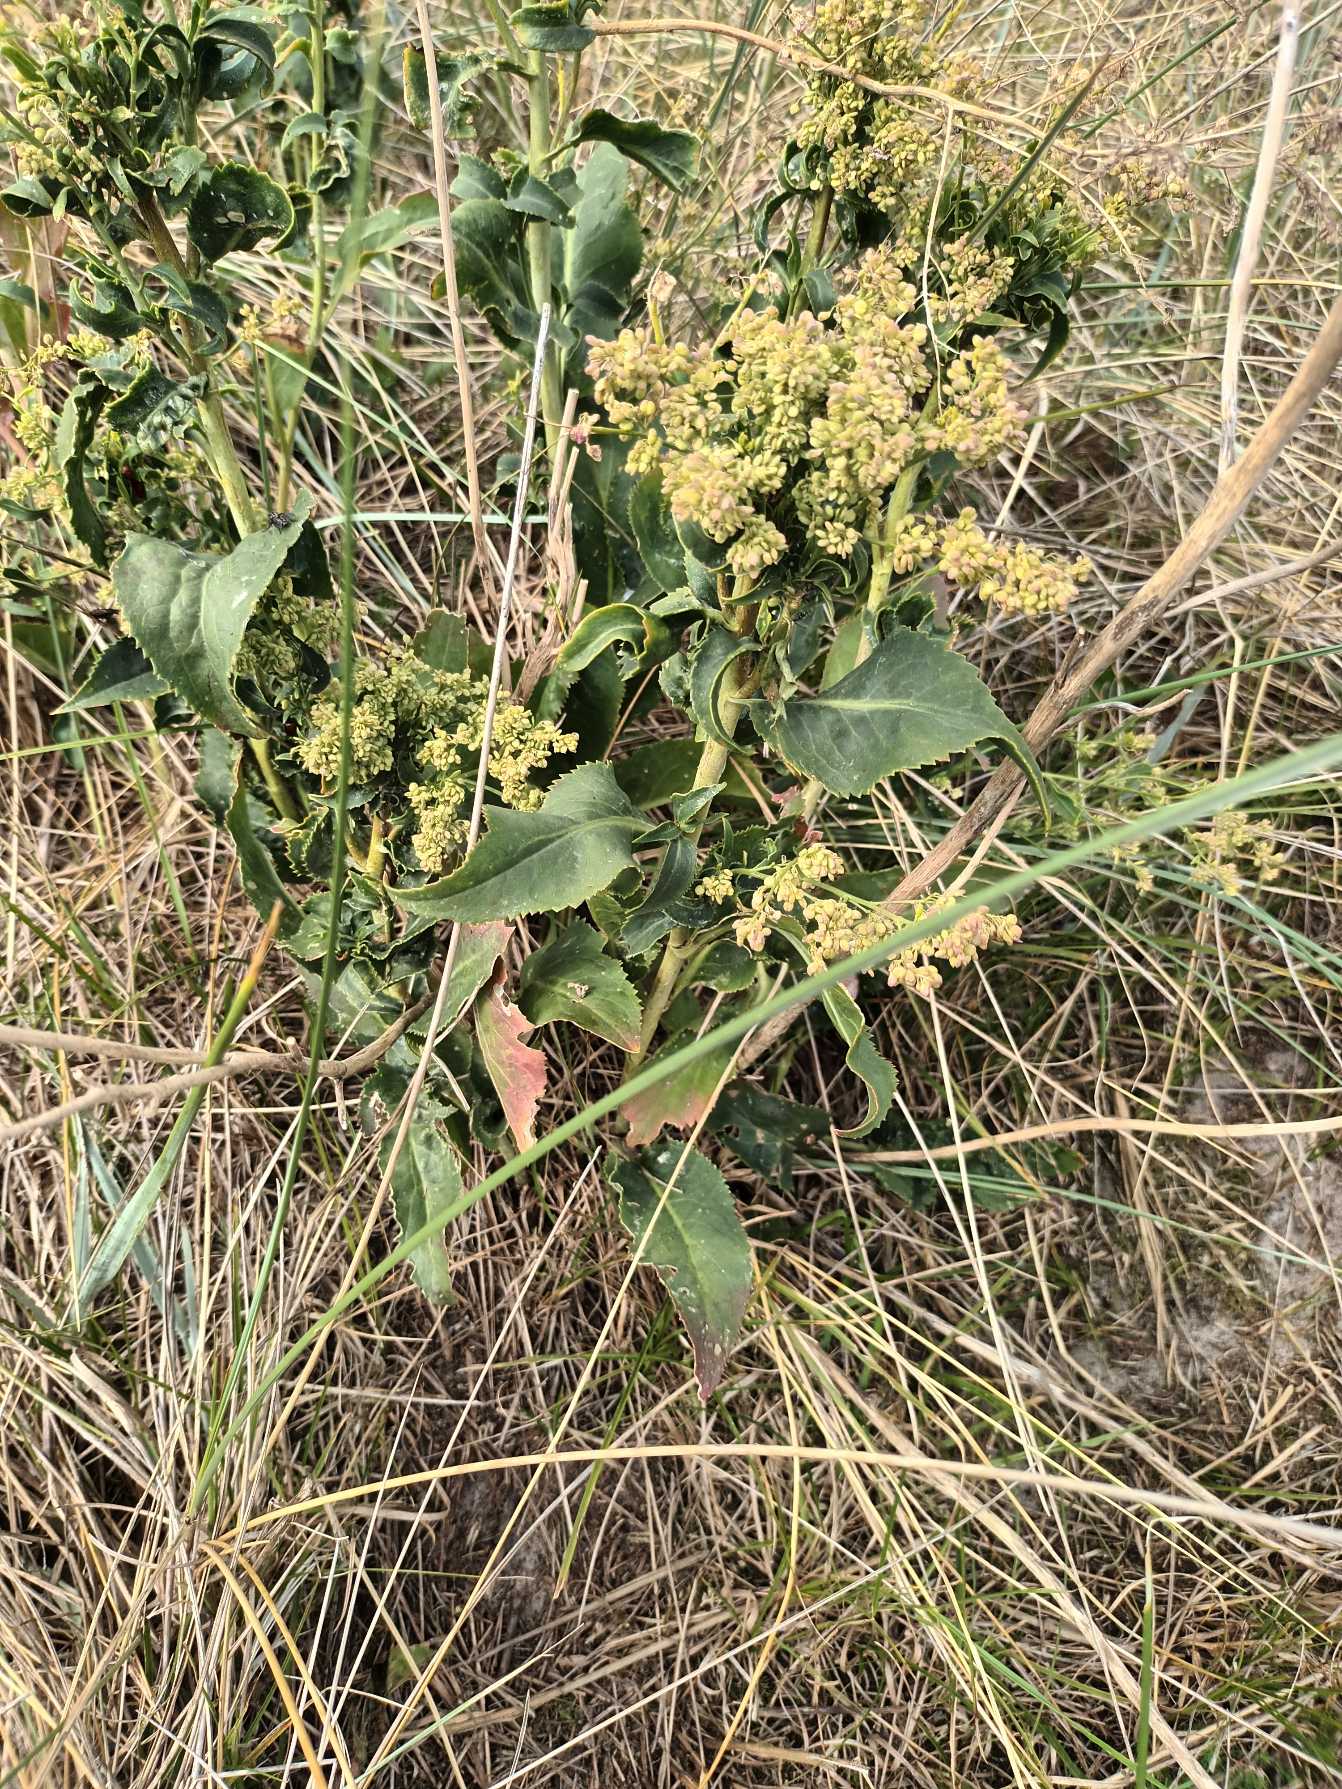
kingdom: Plantae
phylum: Tracheophyta
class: Magnoliopsida
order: Brassicales
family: Brassicaceae
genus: Lepidium
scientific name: Lepidium latifolium
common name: Strand-karse
